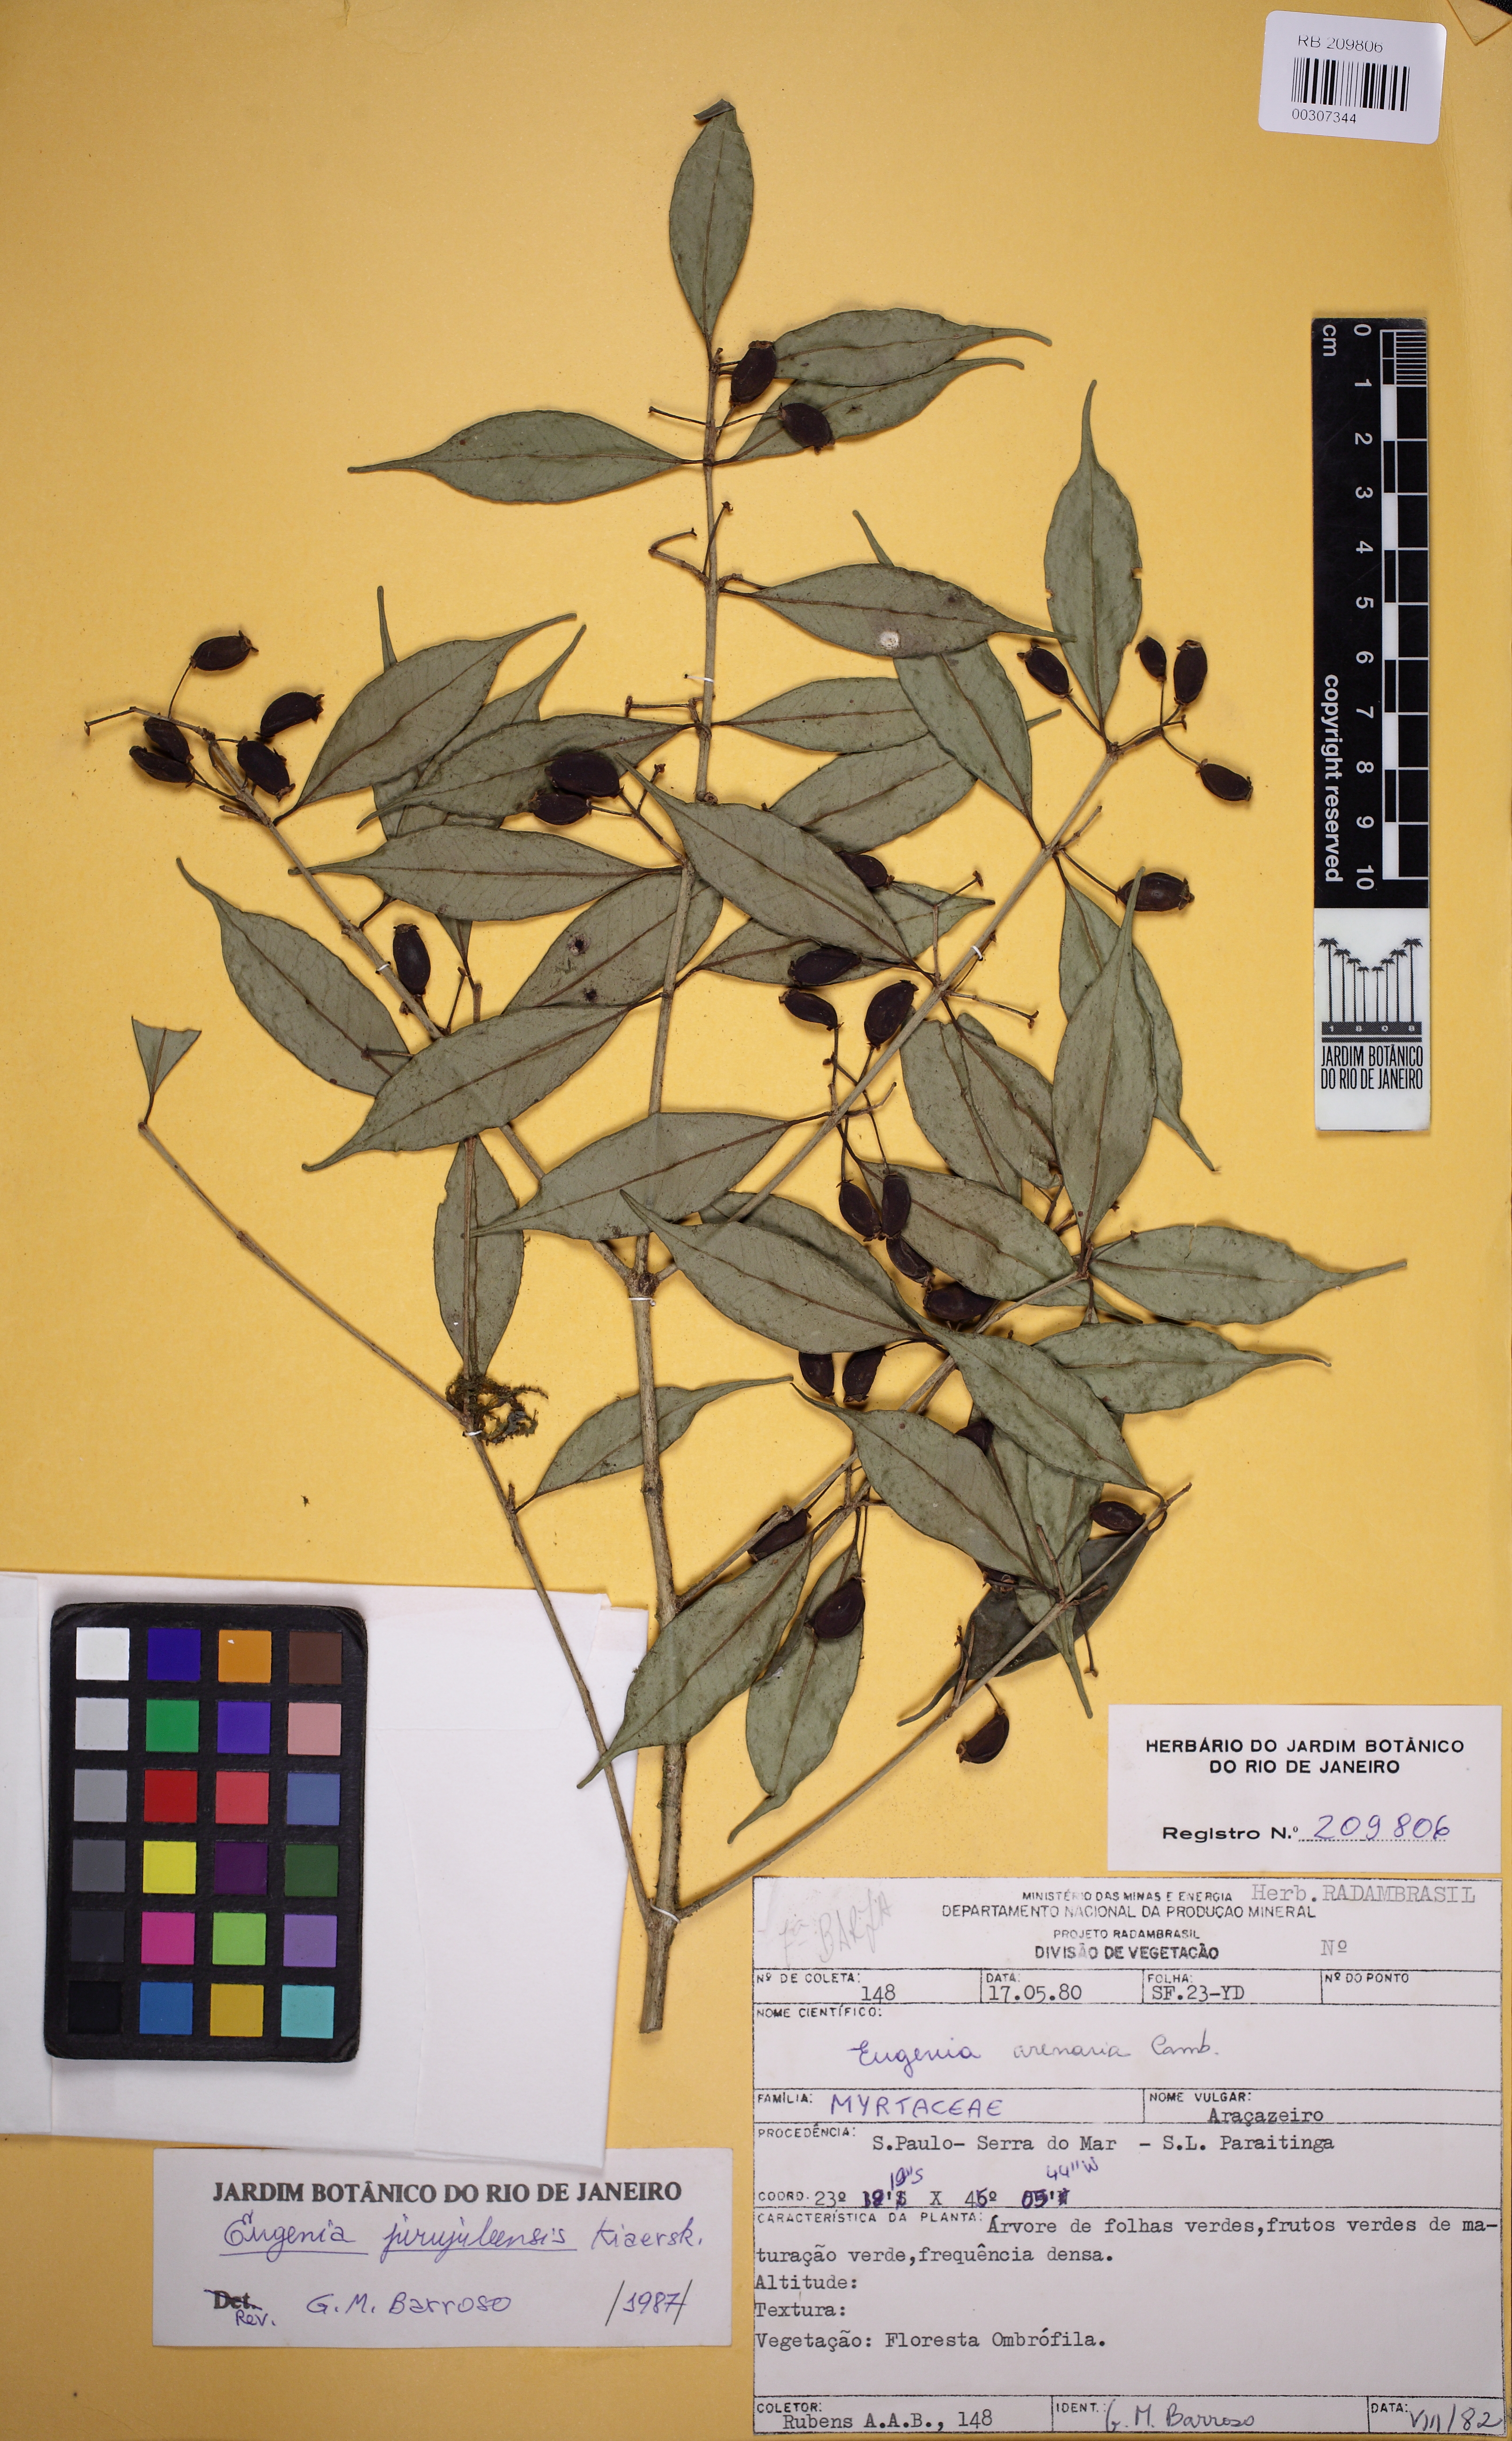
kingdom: Plantae
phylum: Tracheophyta
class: Magnoliopsida
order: Myrtales
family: Myrtaceae
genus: Eugenia
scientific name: Eugenia prasina
